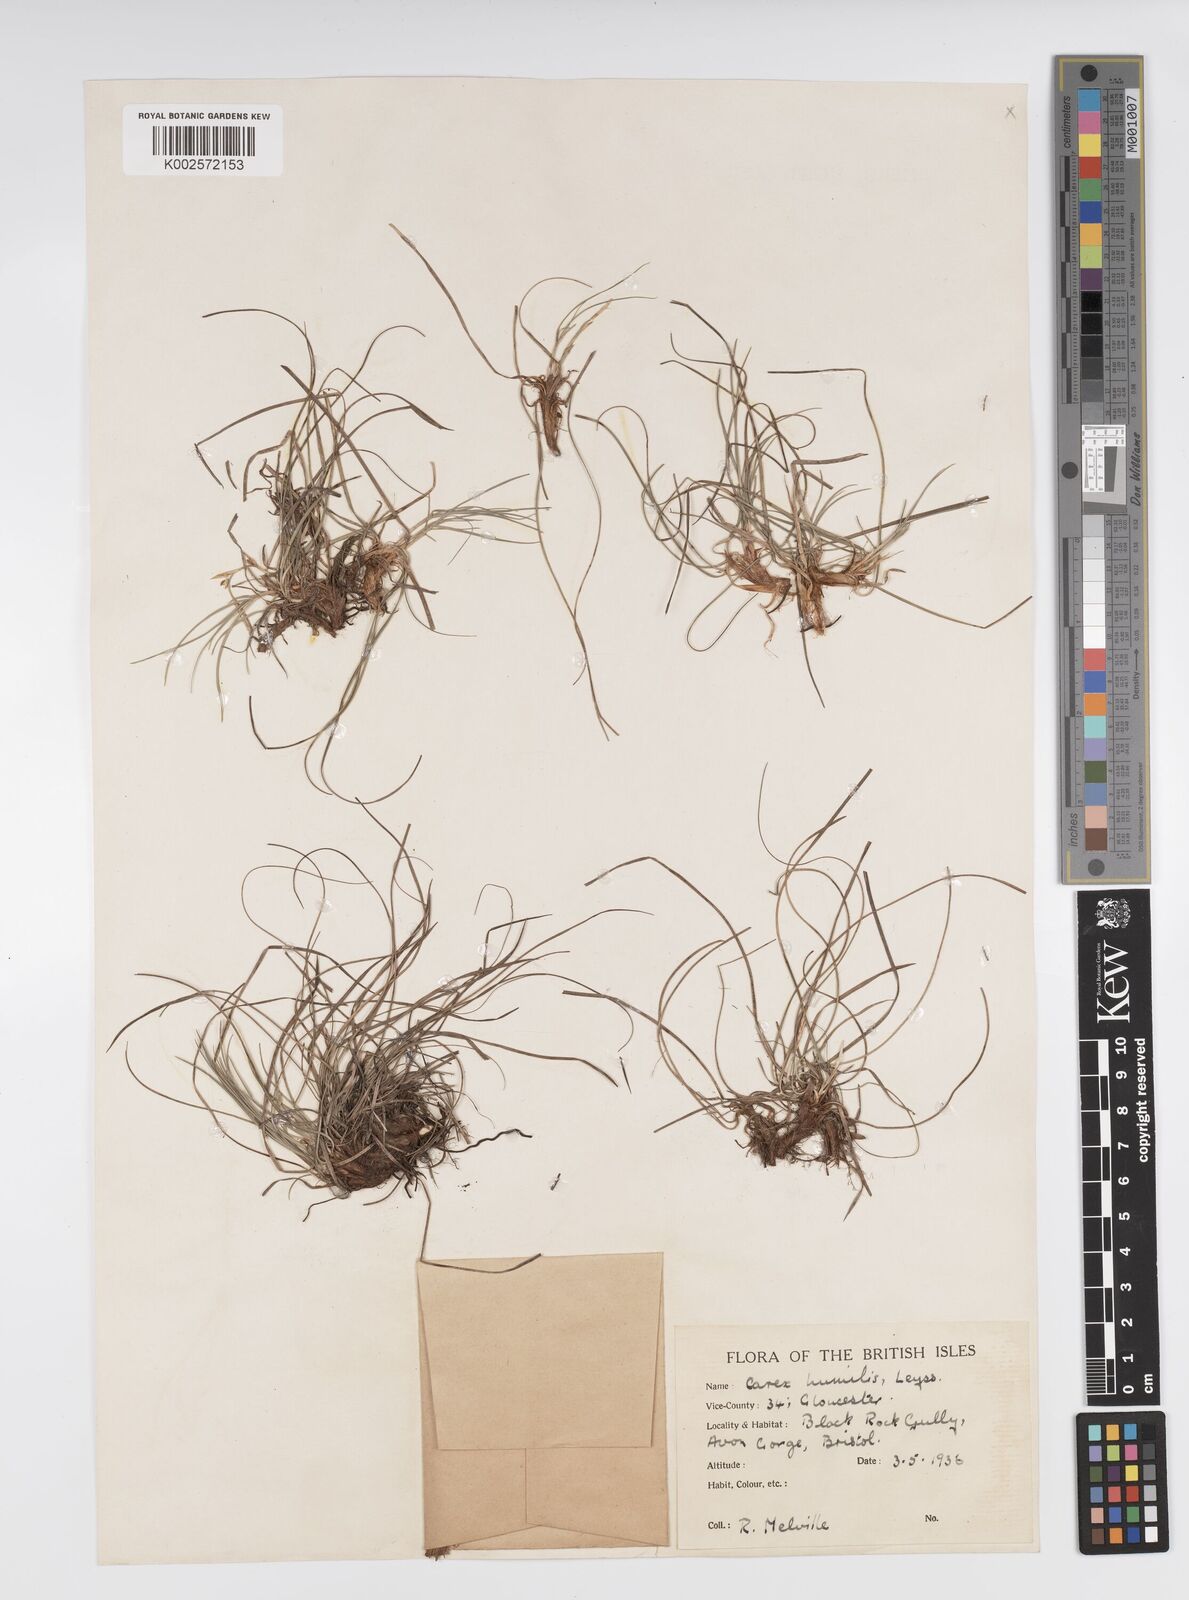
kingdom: Plantae
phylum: Tracheophyta
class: Liliopsida
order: Poales
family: Cyperaceae
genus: Carex
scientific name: Carex humilis
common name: Dwarf sedge
